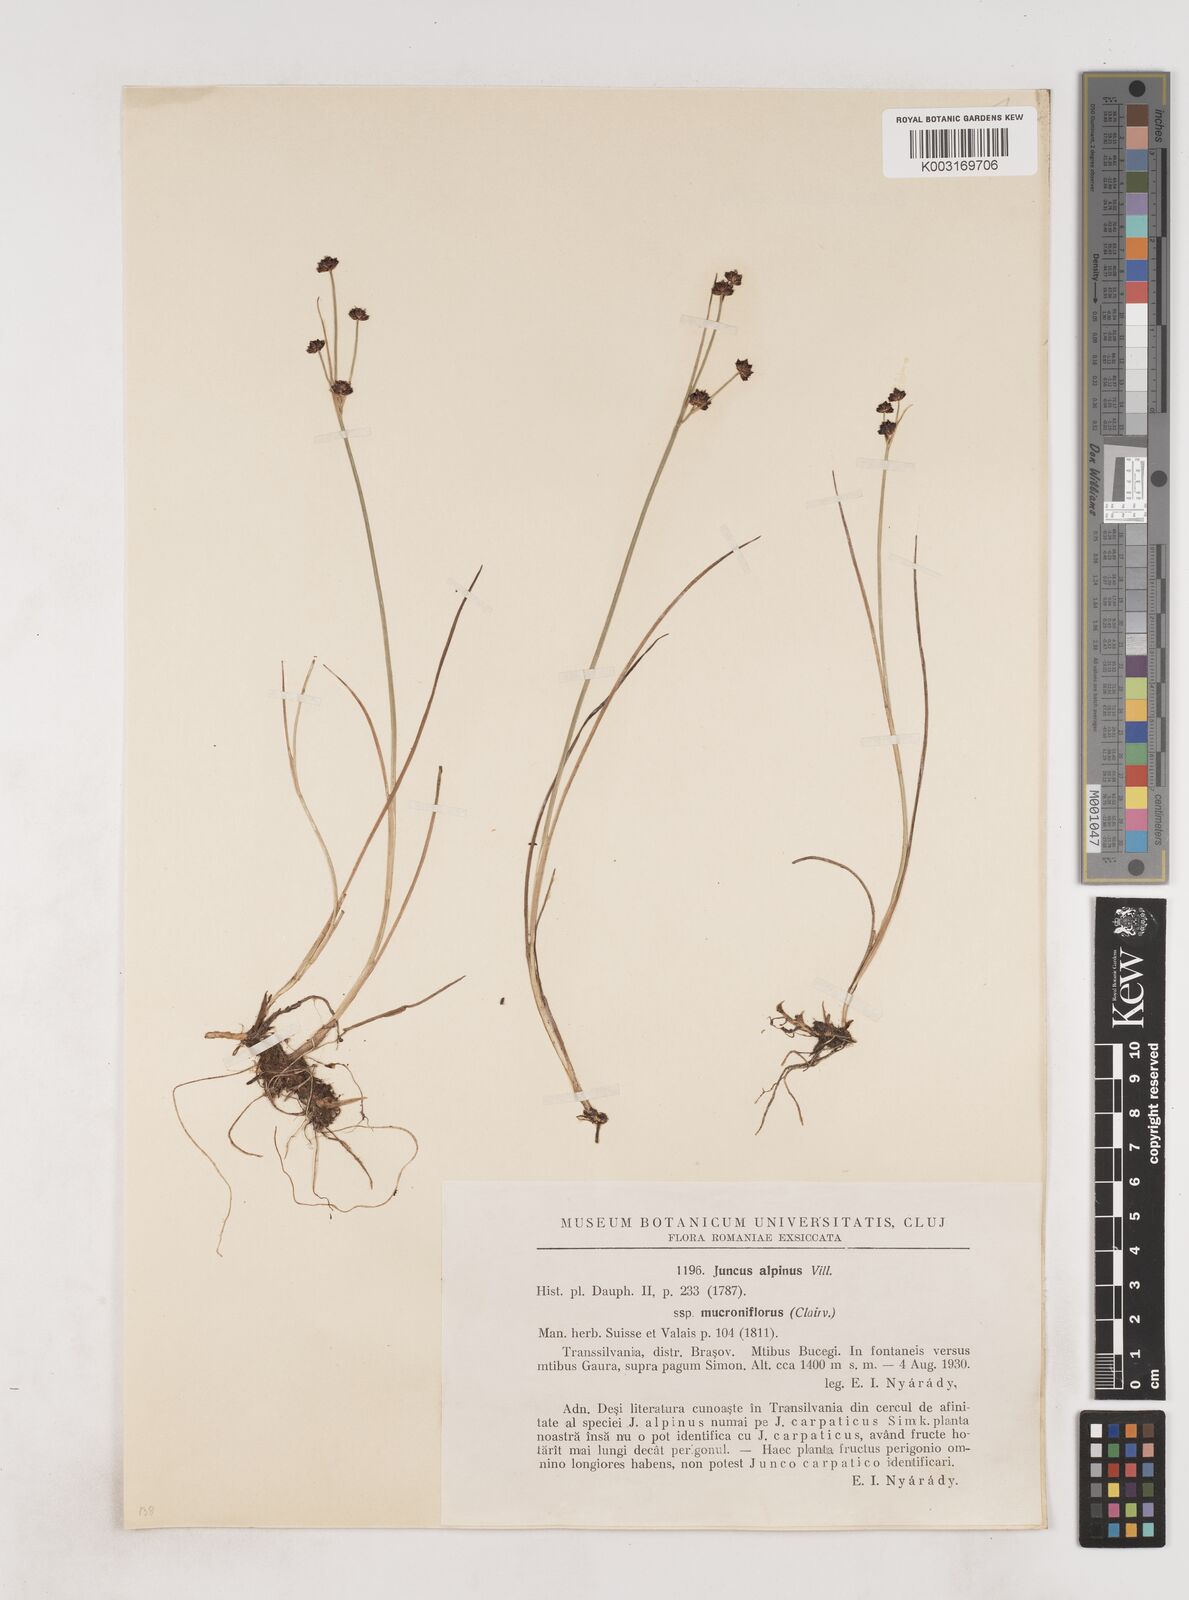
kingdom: Plantae
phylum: Tracheophyta
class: Liliopsida
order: Poales
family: Juncaceae
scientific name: Juncaceae
